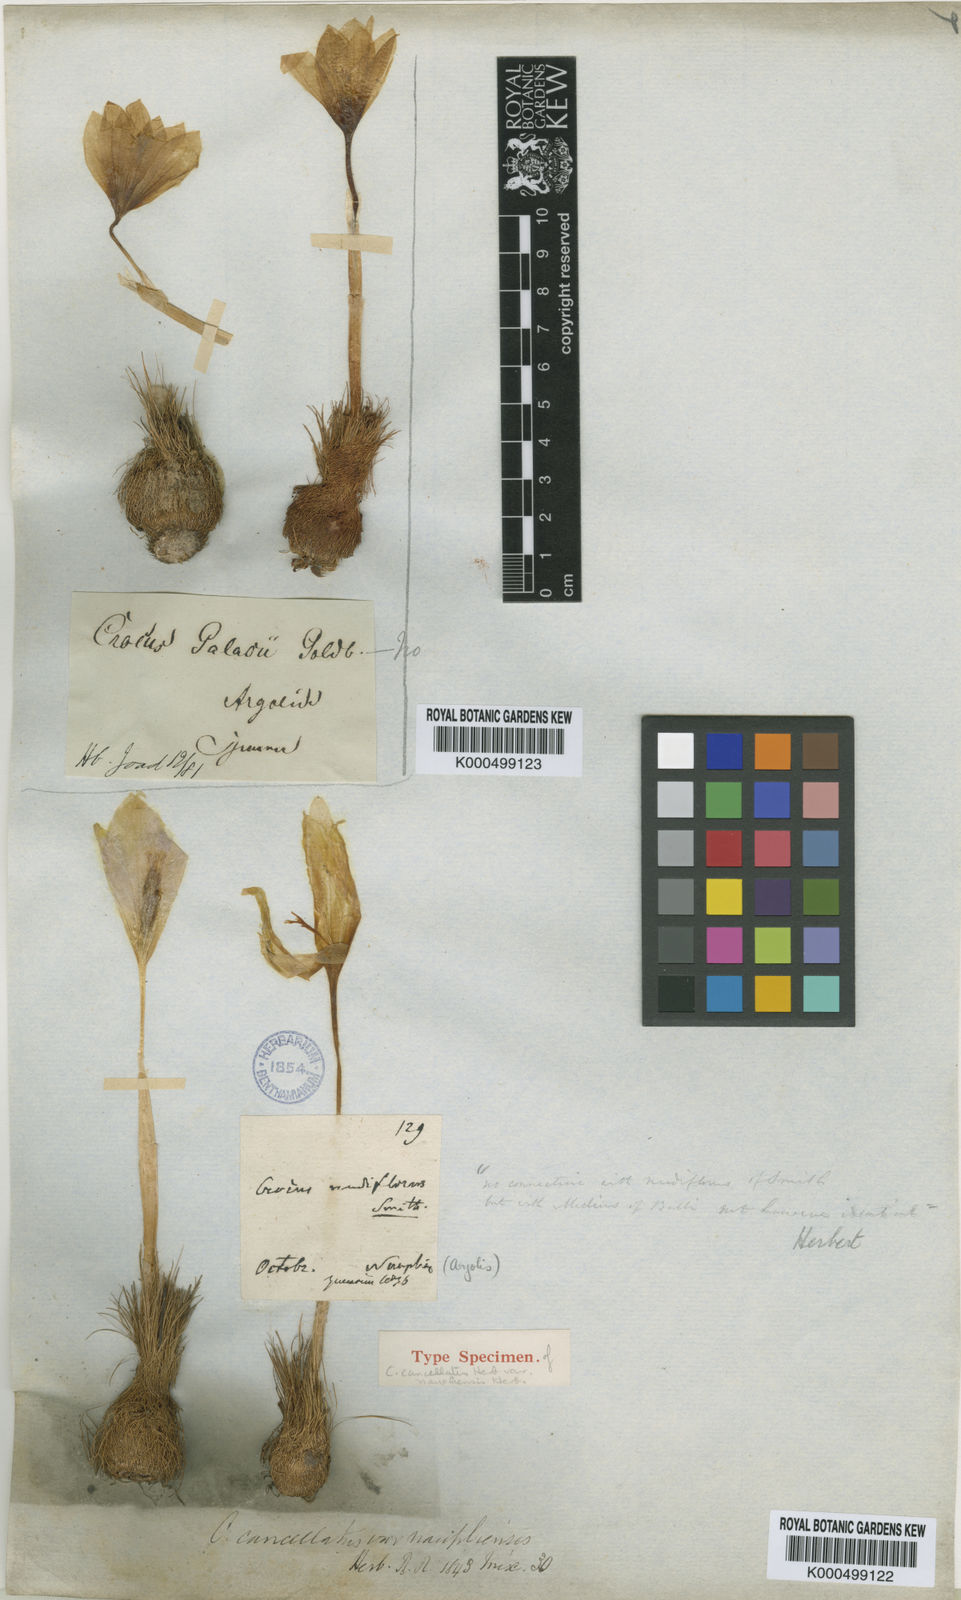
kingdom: Plantae
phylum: Tracheophyta
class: Liliopsida
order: Asparagales
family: Iridaceae
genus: Crocus
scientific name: Crocus cancellatus
